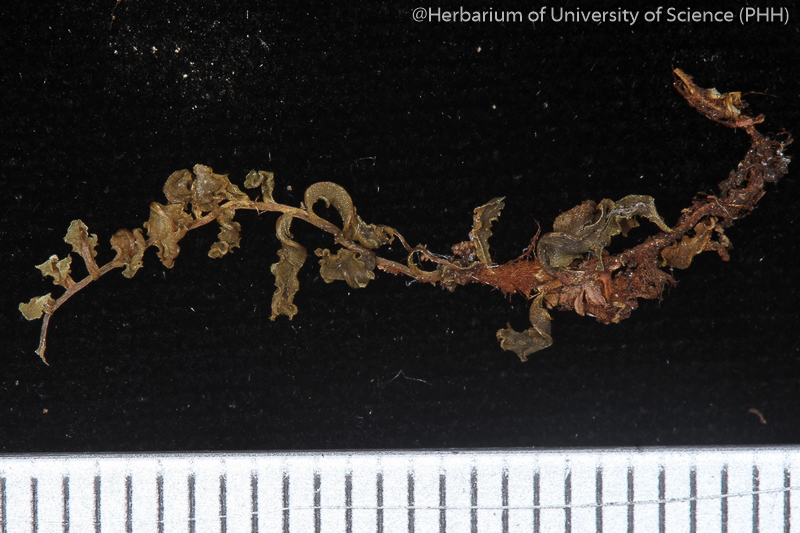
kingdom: Plantae
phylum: Bryophyta
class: Bryopsida
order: Bryales
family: Mniaceae
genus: Mnium
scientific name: Mnium lycopodioides
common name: Clubmoss leafy moss
